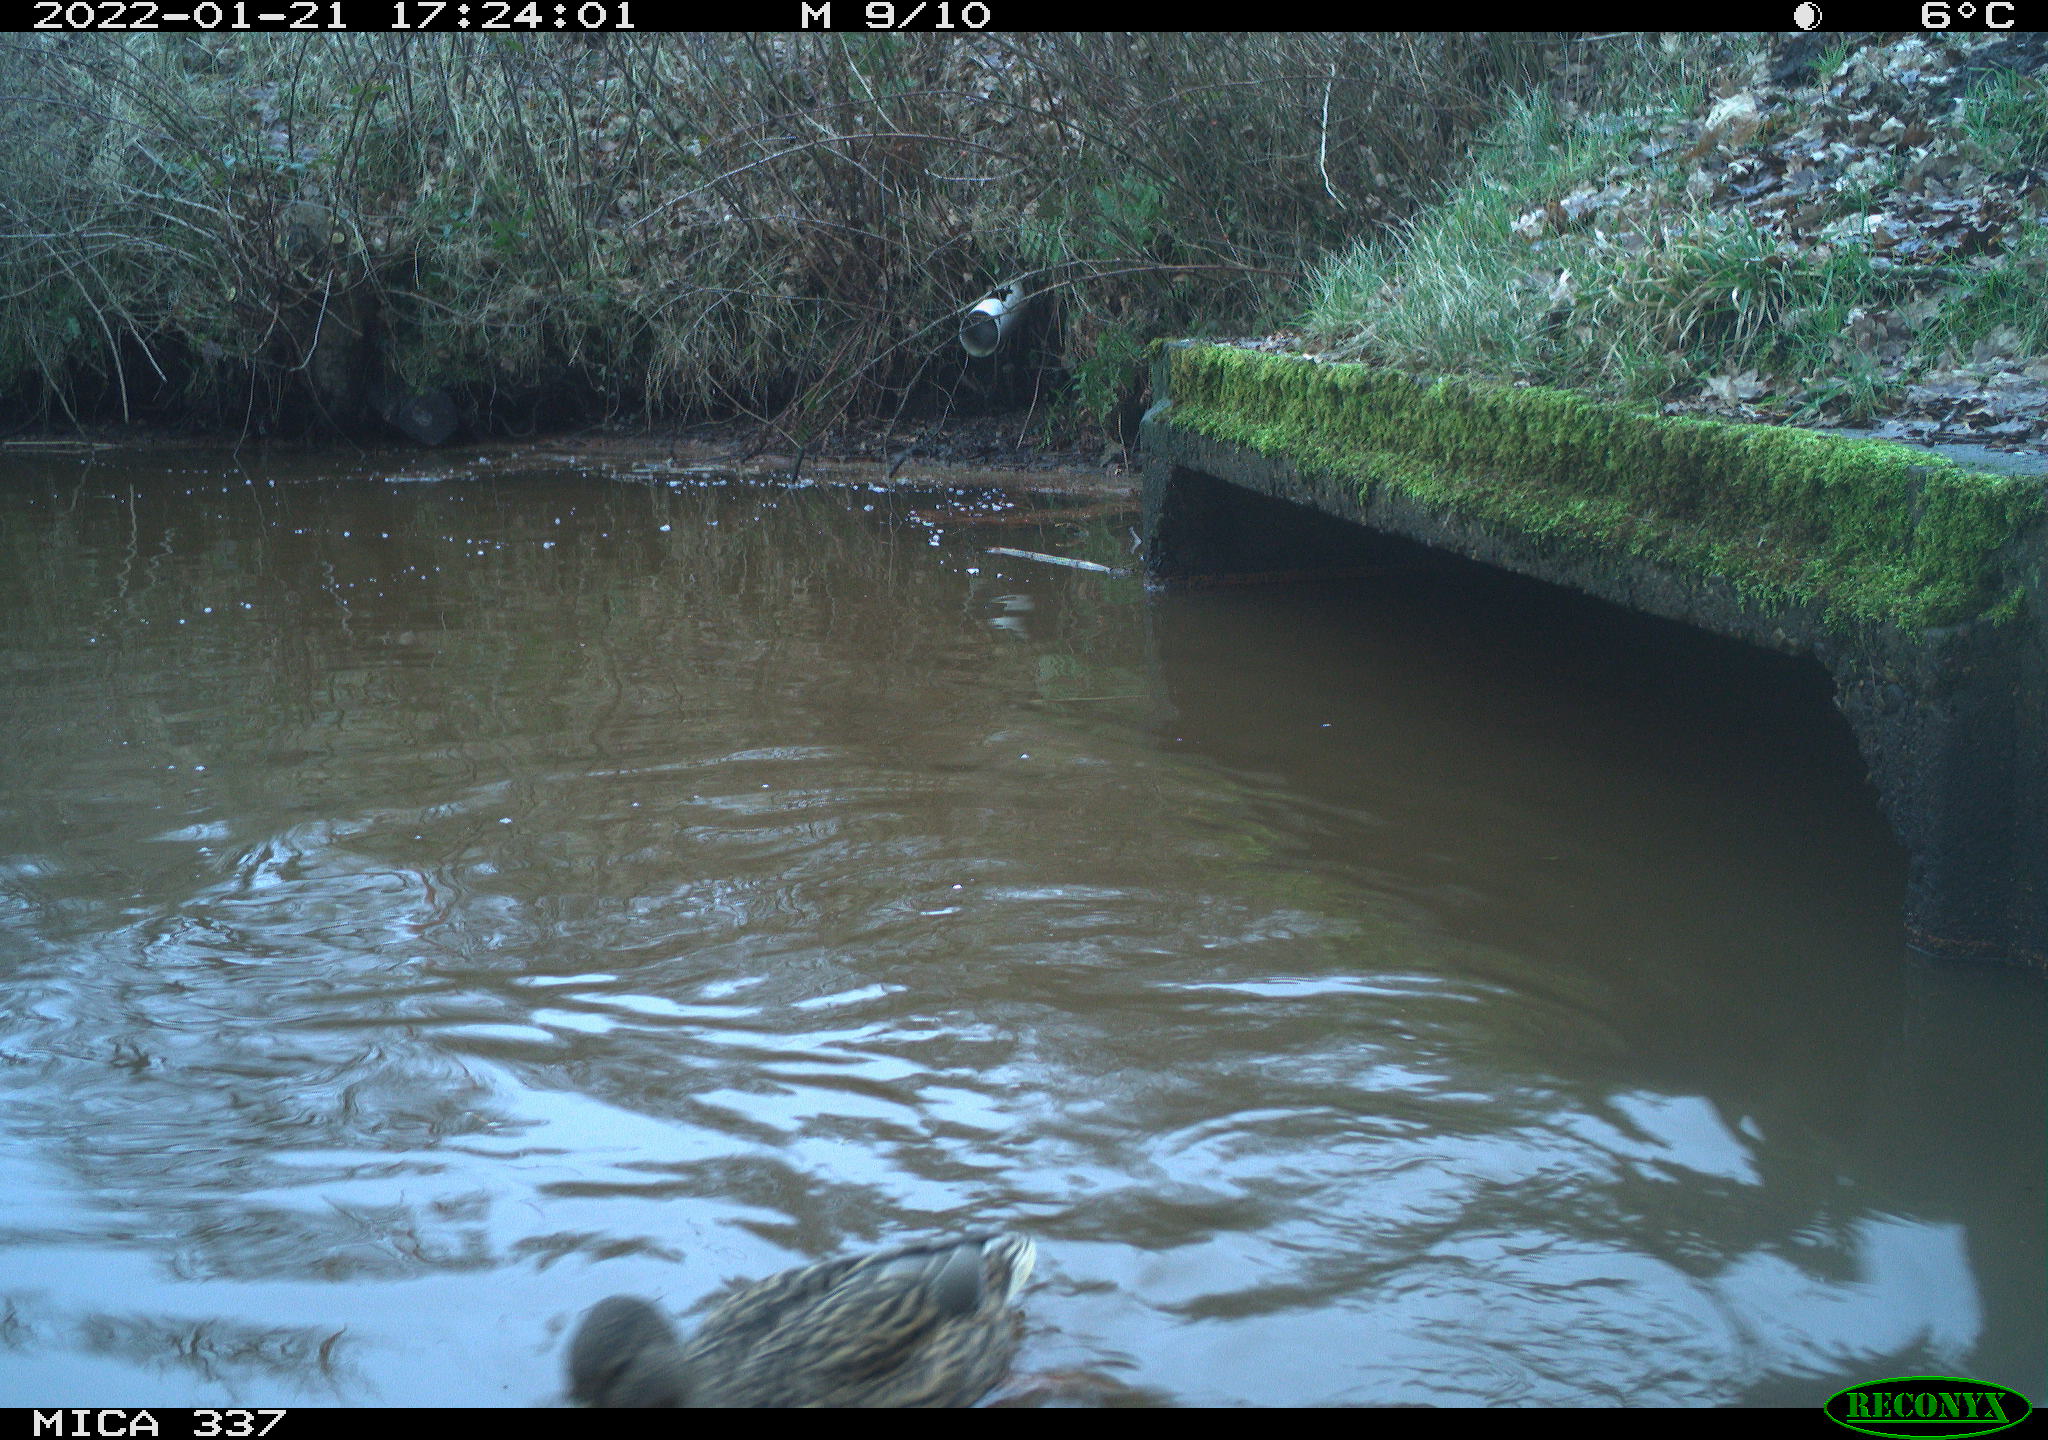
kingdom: Animalia
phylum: Chordata
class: Aves
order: Anseriformes
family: Anatidae
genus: Anas
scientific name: Anas platyrhynchos
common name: Mallard
